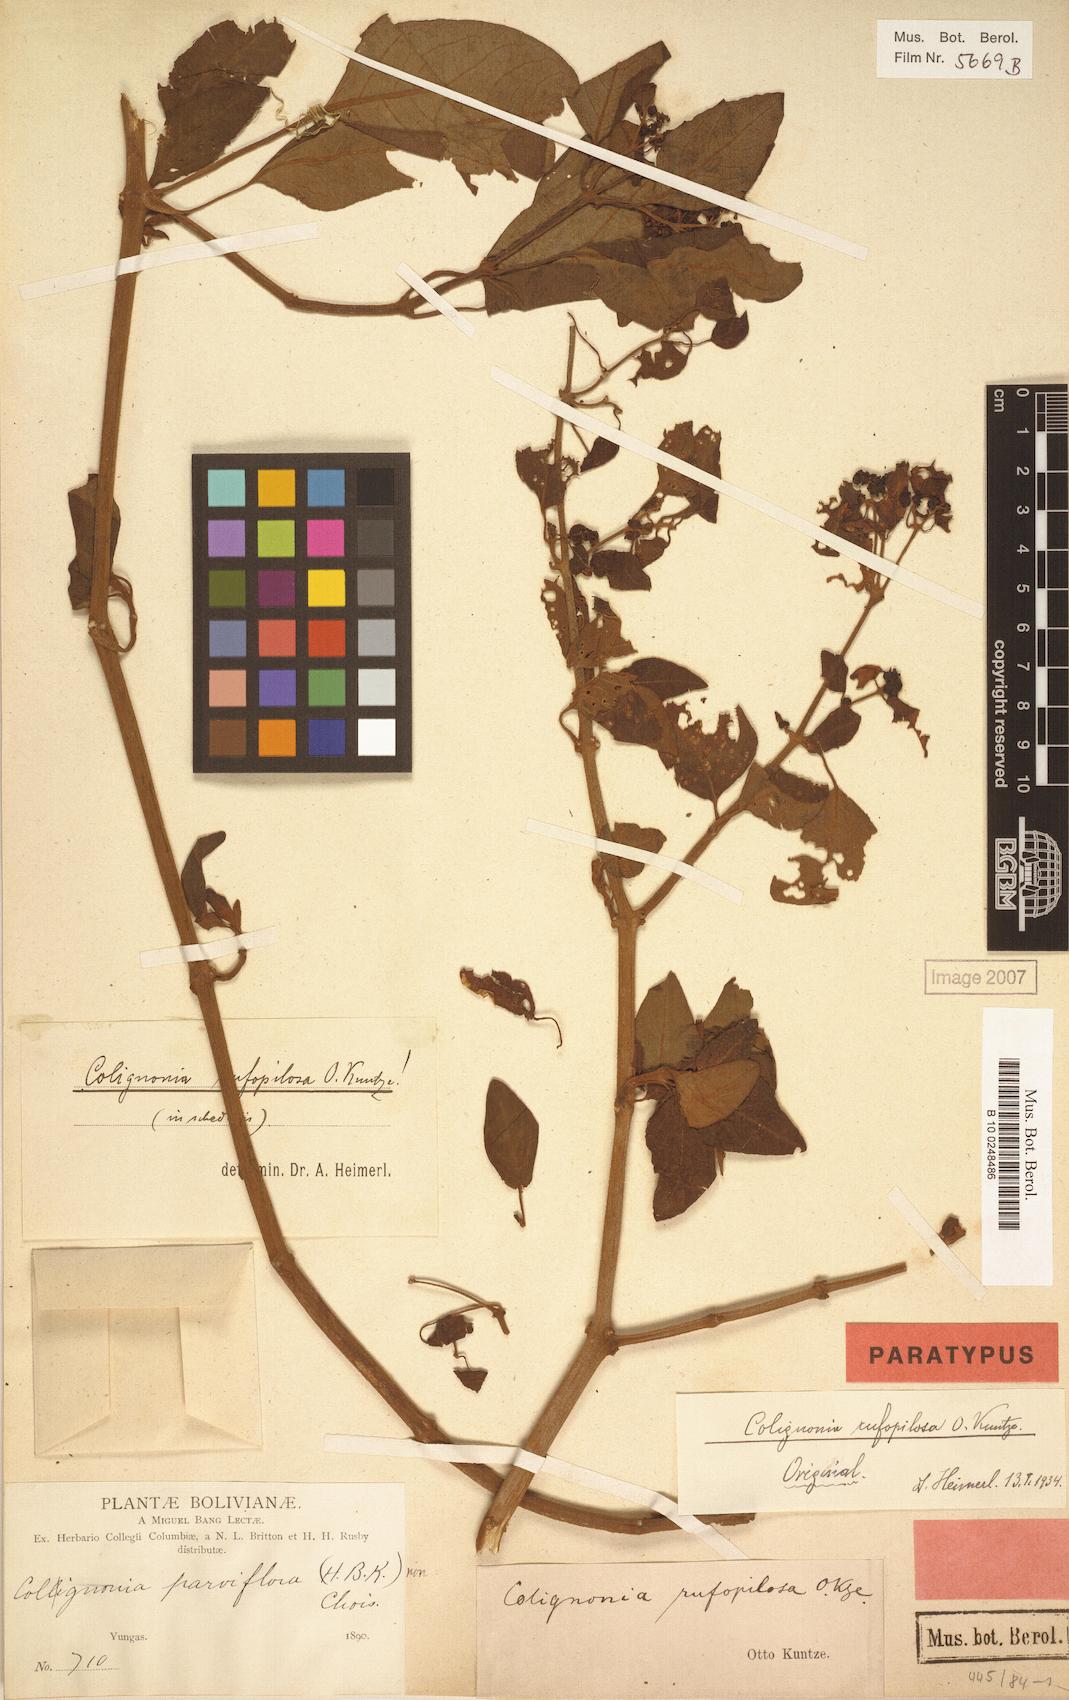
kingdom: Plantae
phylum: Tracheophyta
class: Magnoliopsida
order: Caryophyllales
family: Nyctaginaceae
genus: Colignonia
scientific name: Colignonia rufopilosa
